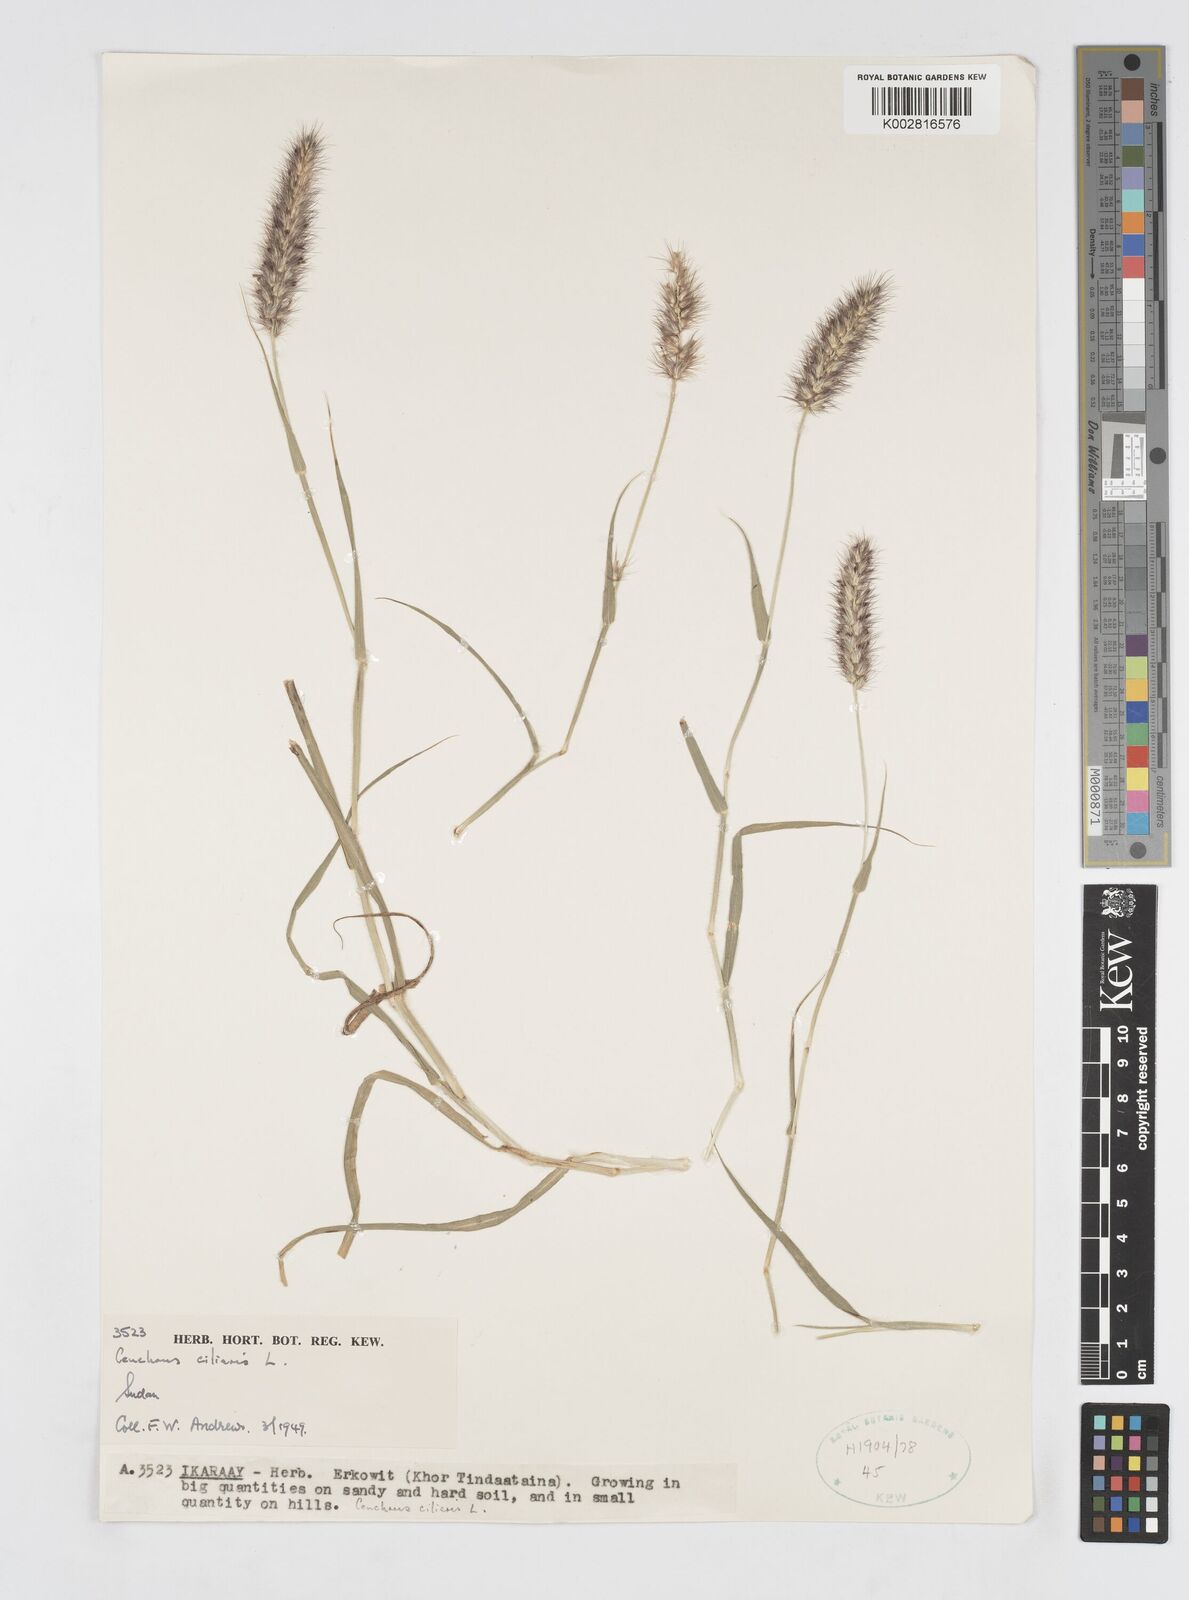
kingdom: Plantae
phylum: Tracheophyta
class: Liliopsida
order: Poales
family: Poaceae
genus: Cenchrus
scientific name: Cenchrus ciliaris
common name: Buffelgrass
